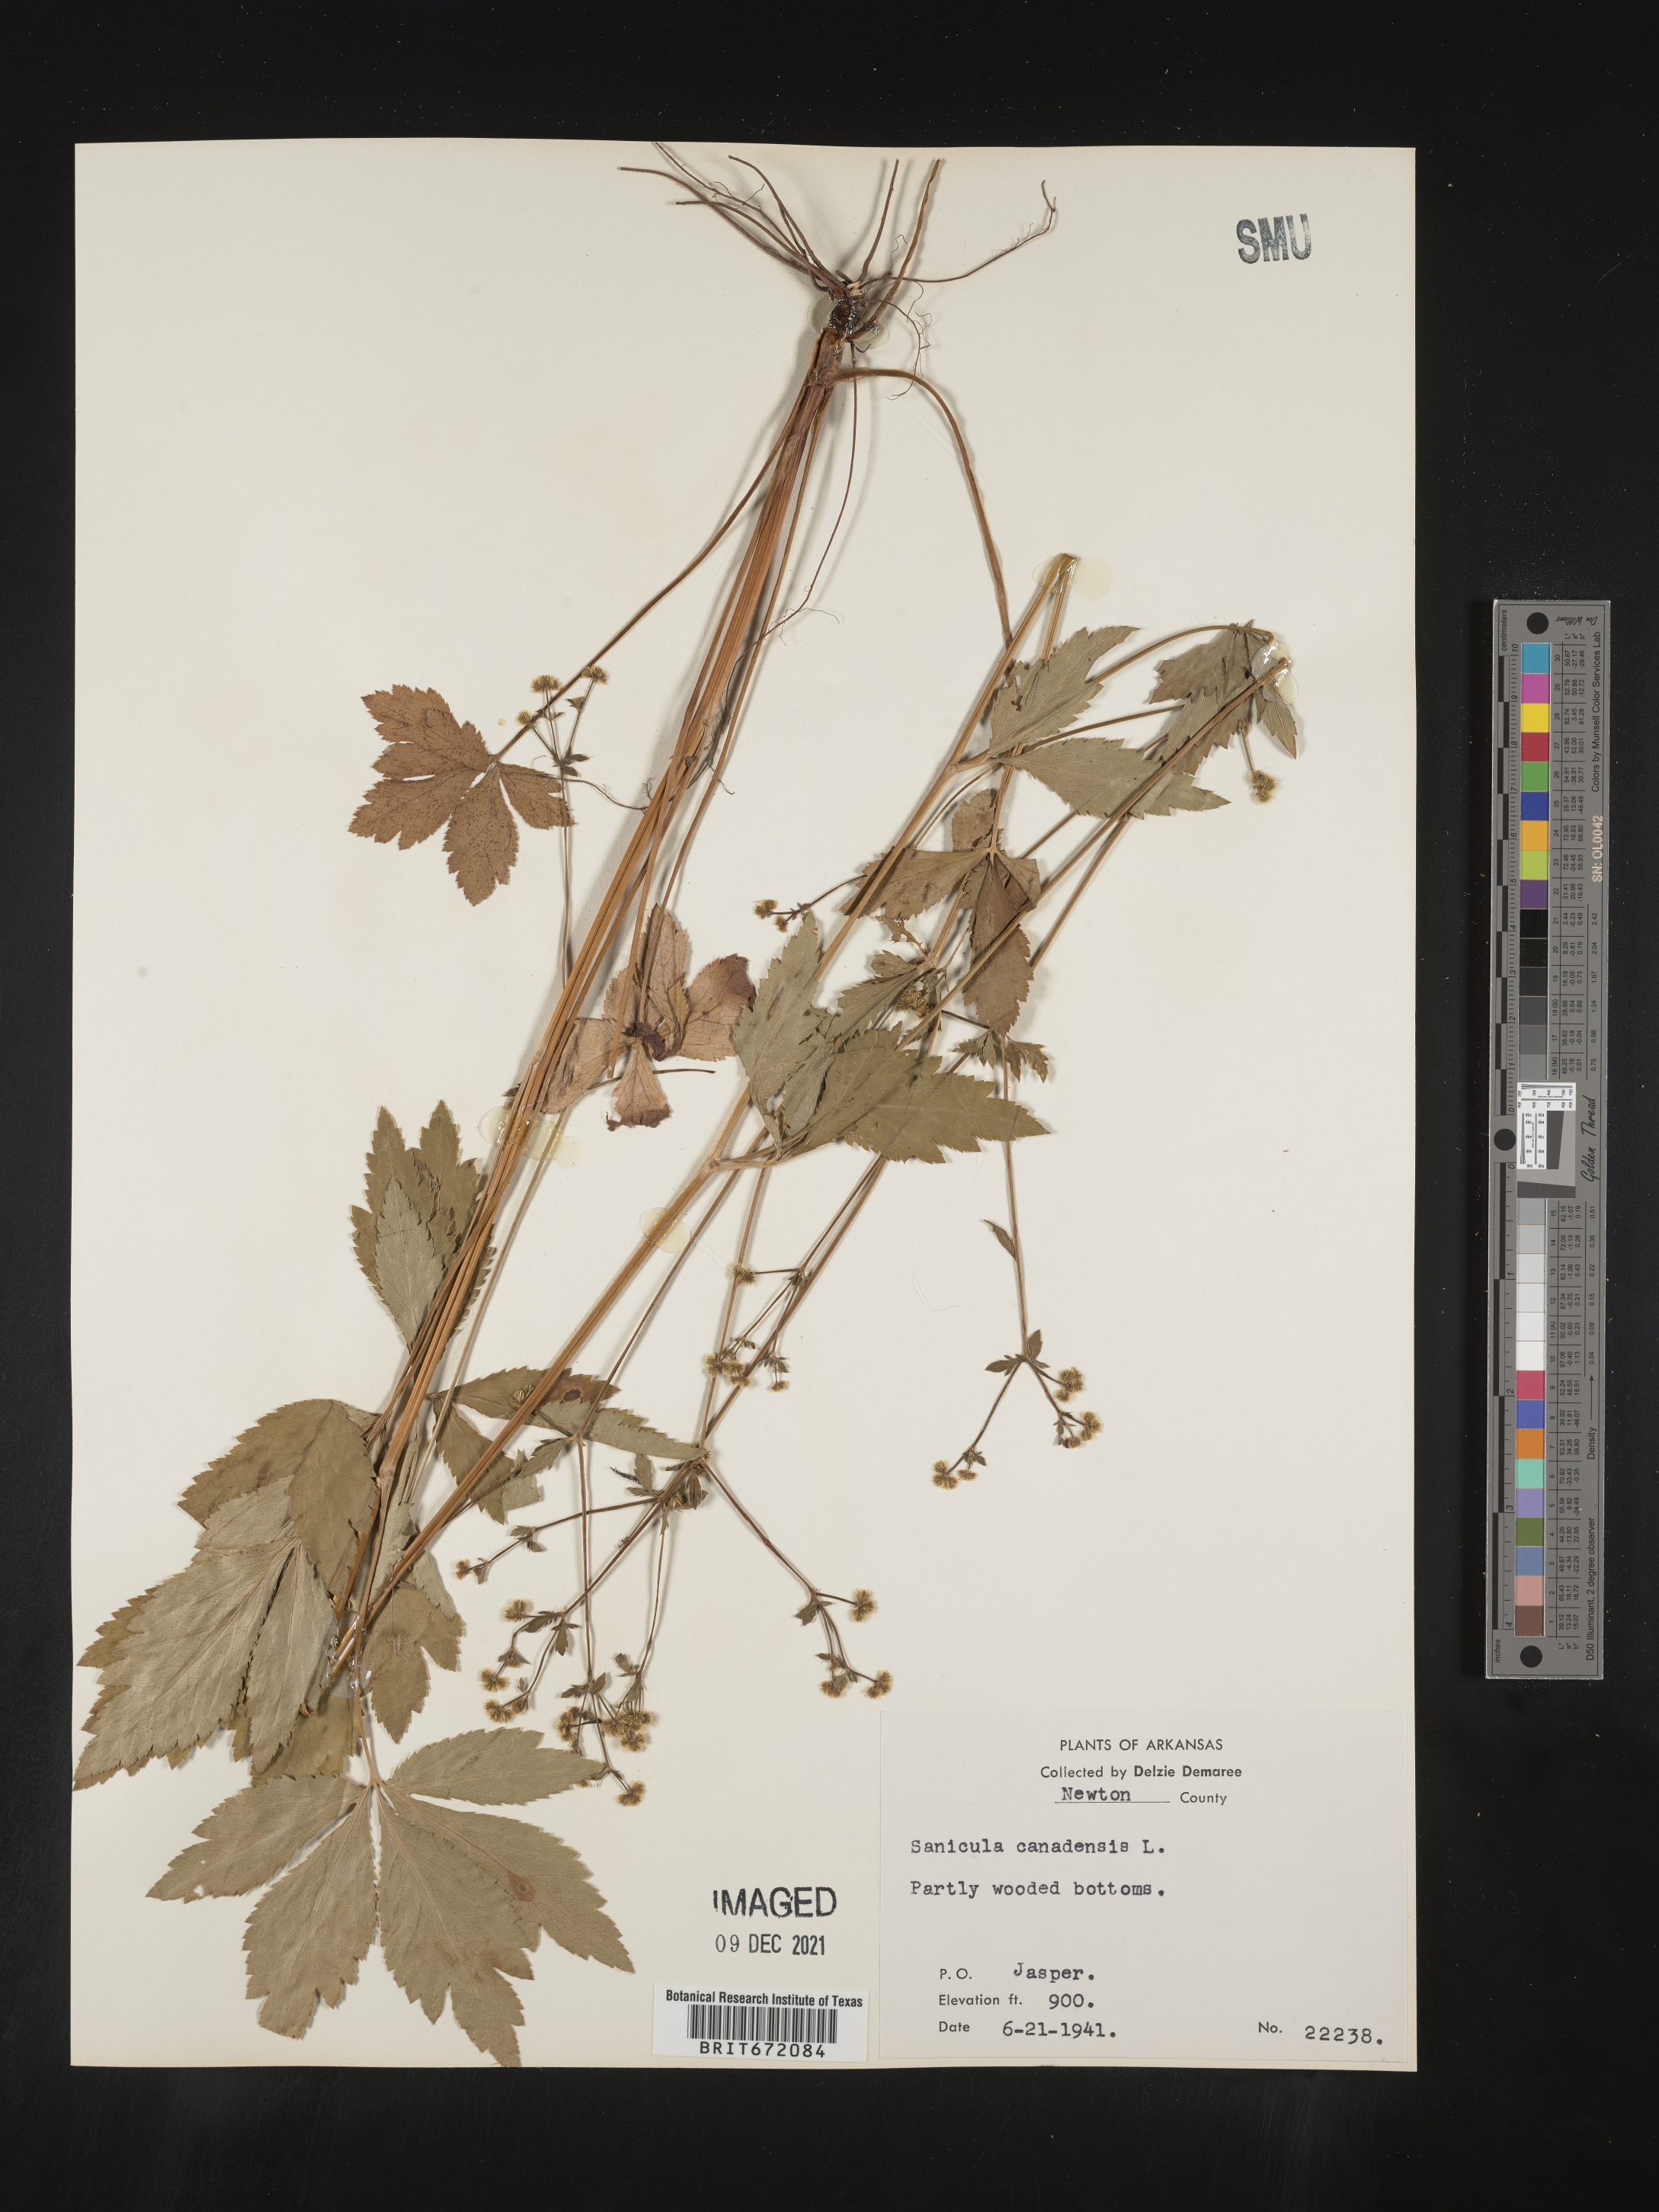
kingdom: Plantae
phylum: Tracheophyta
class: Magnoliopsida
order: Apiales
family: Apiaceae
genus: Sanicula
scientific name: Sanicula canadensis
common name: Canada sanicle
